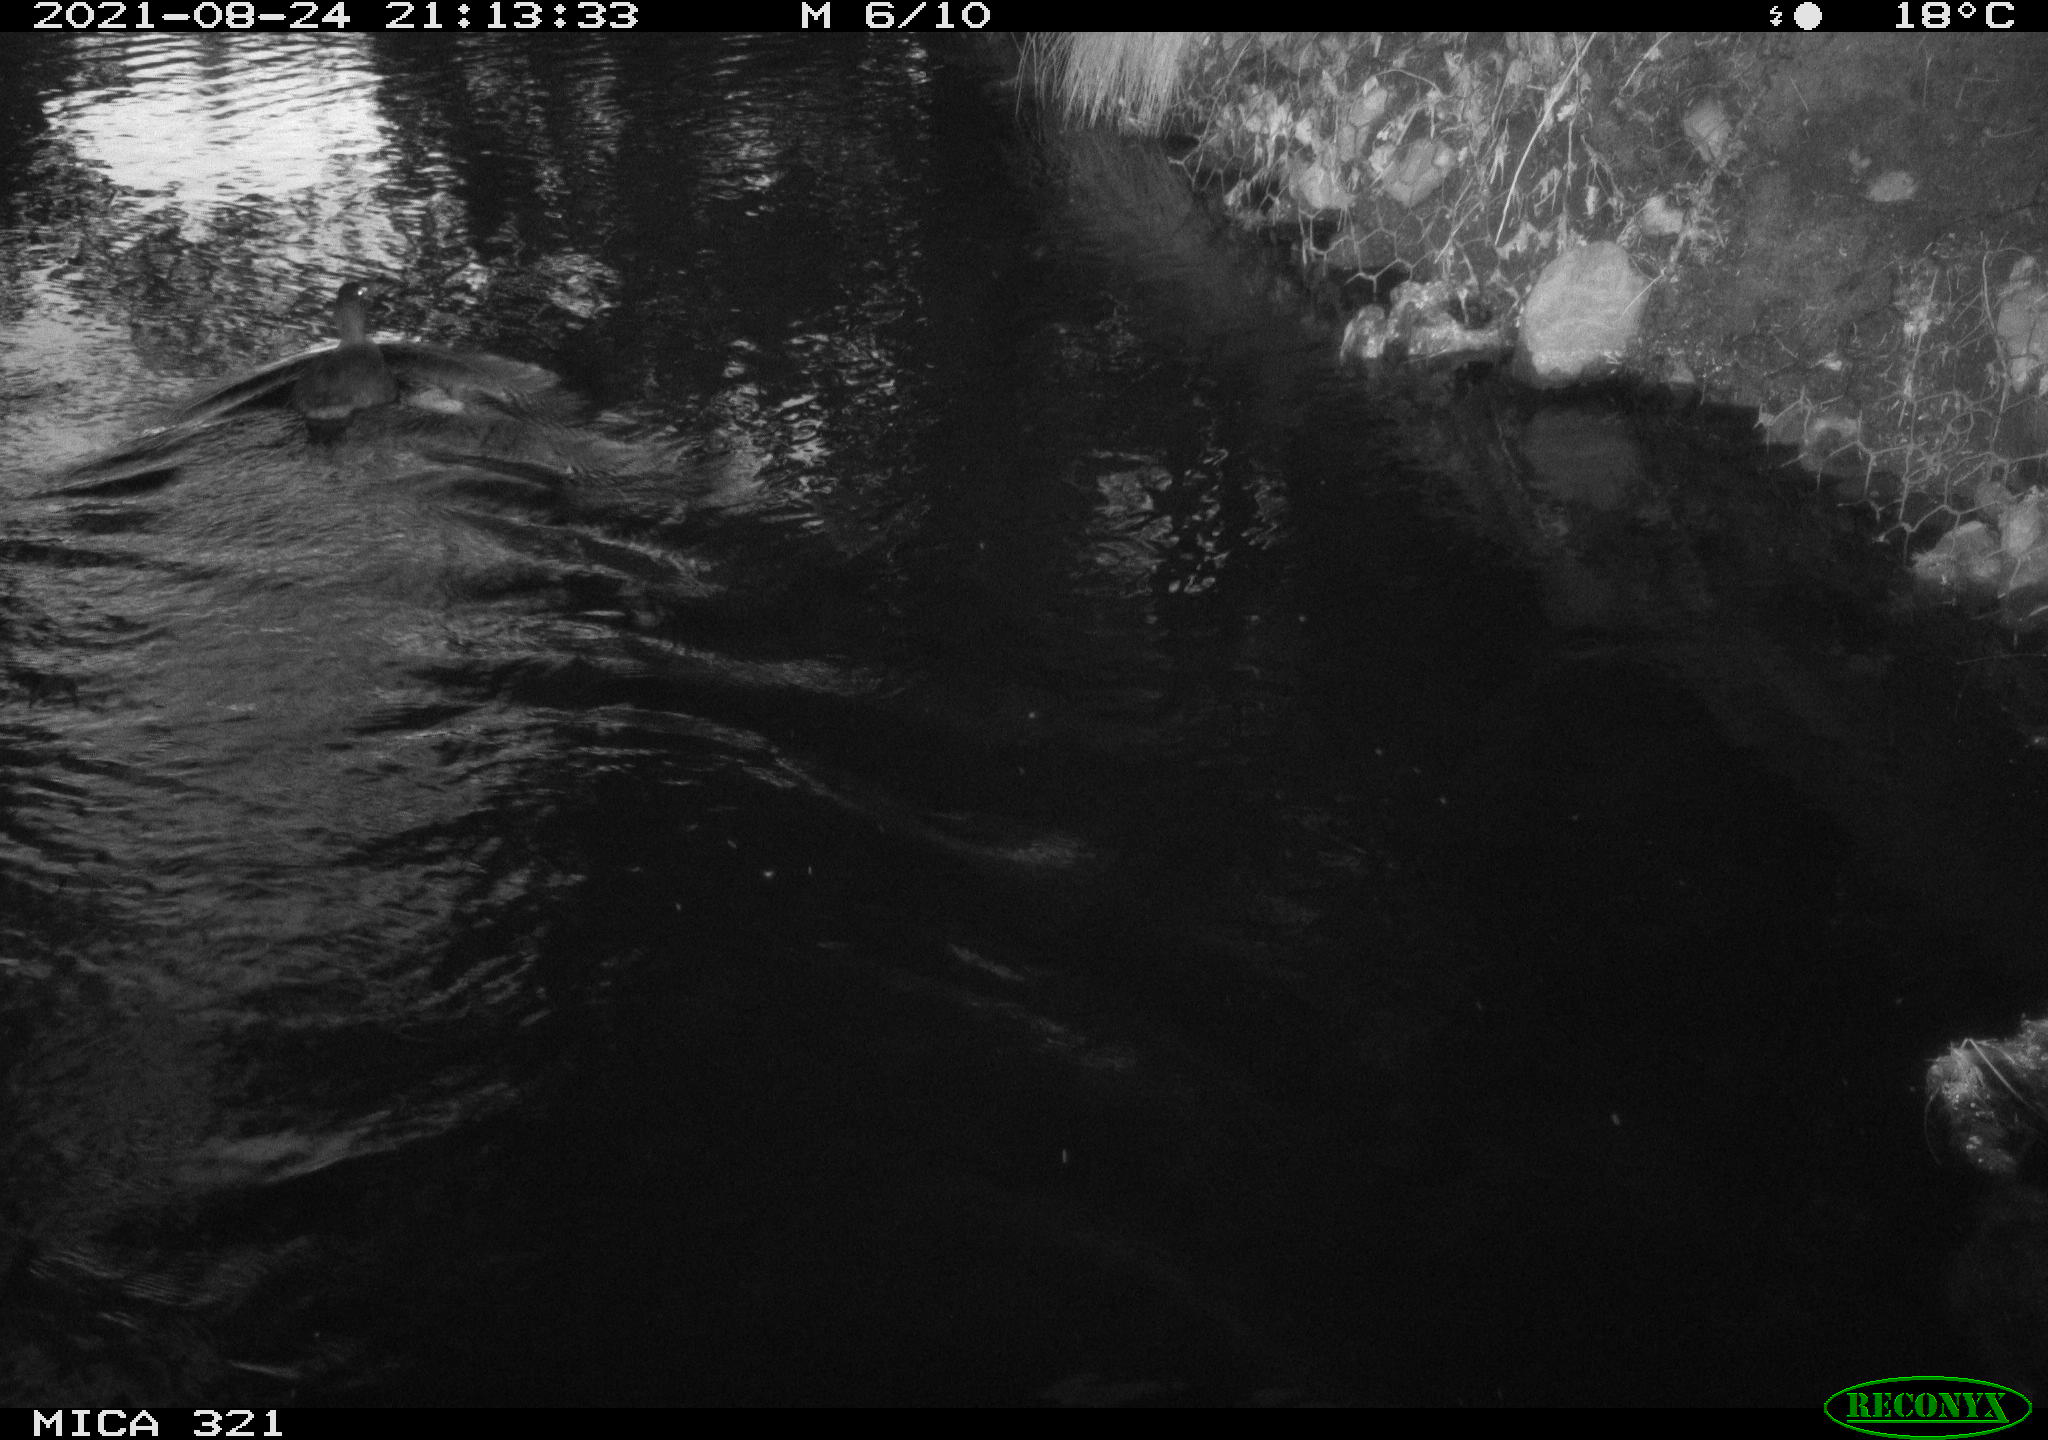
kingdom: Animalia
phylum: Chordata
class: Aves
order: Anseriformes
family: Anatidae
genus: Anas
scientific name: Anas platyrhynchos
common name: Mallard
